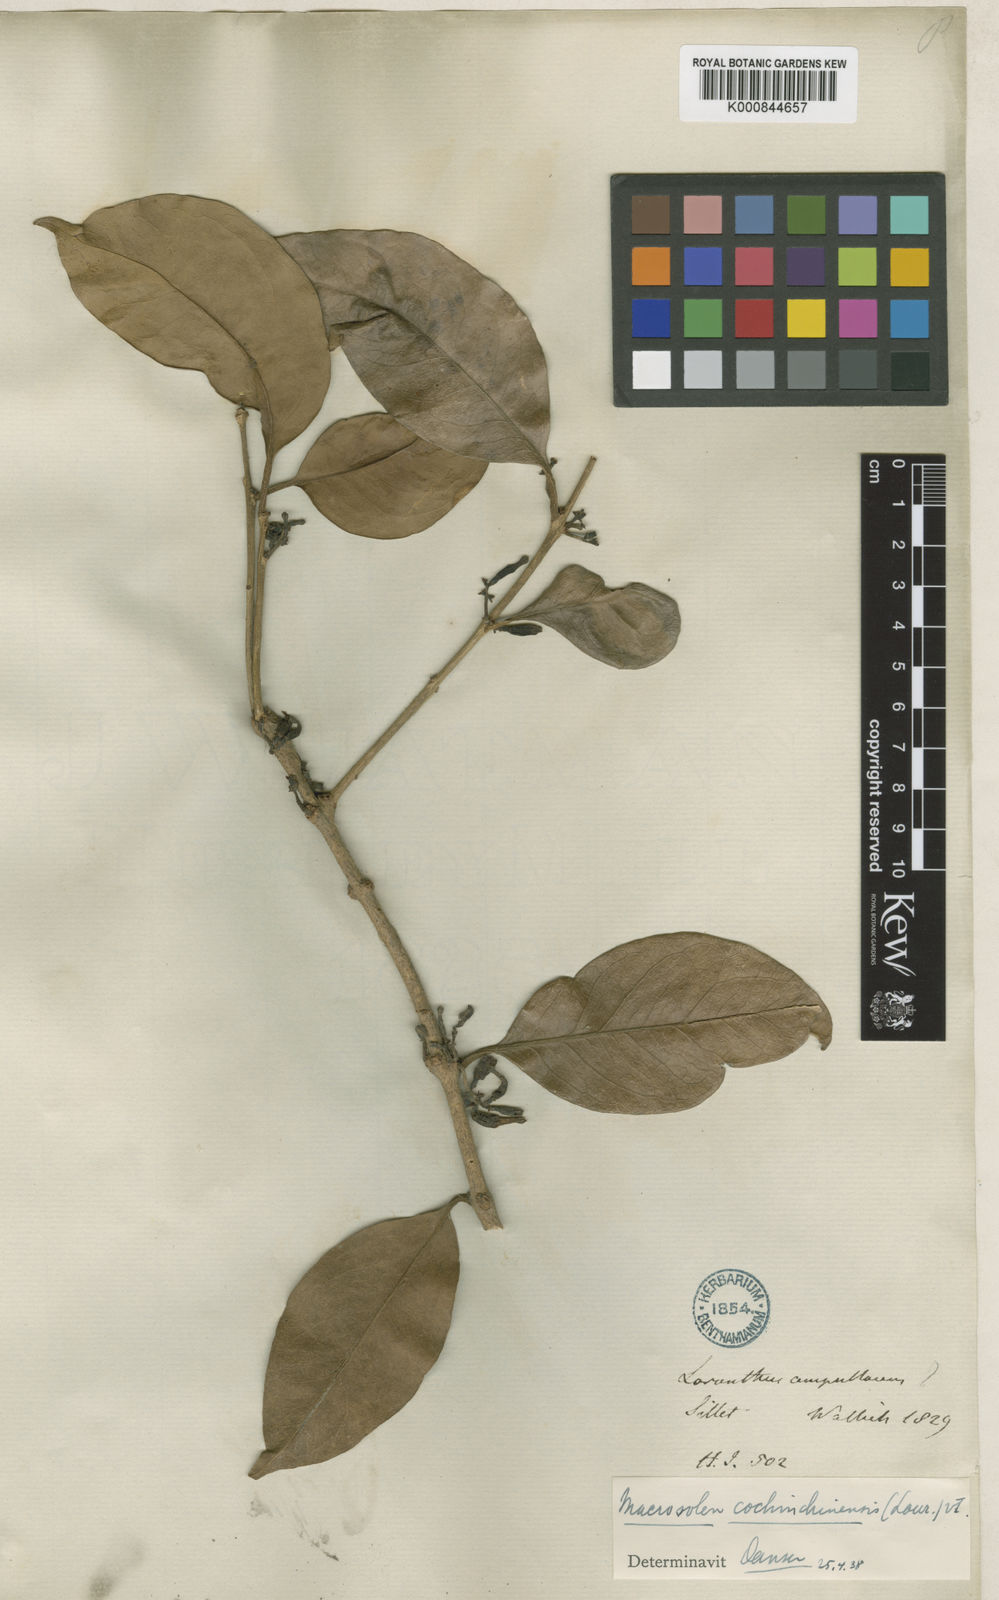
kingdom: Plantae
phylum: Tracheophyta
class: Magnoliopsida
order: Santalales
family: Loranthaceae
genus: Macrosolen
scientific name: Macrosolen cochinchinensis
